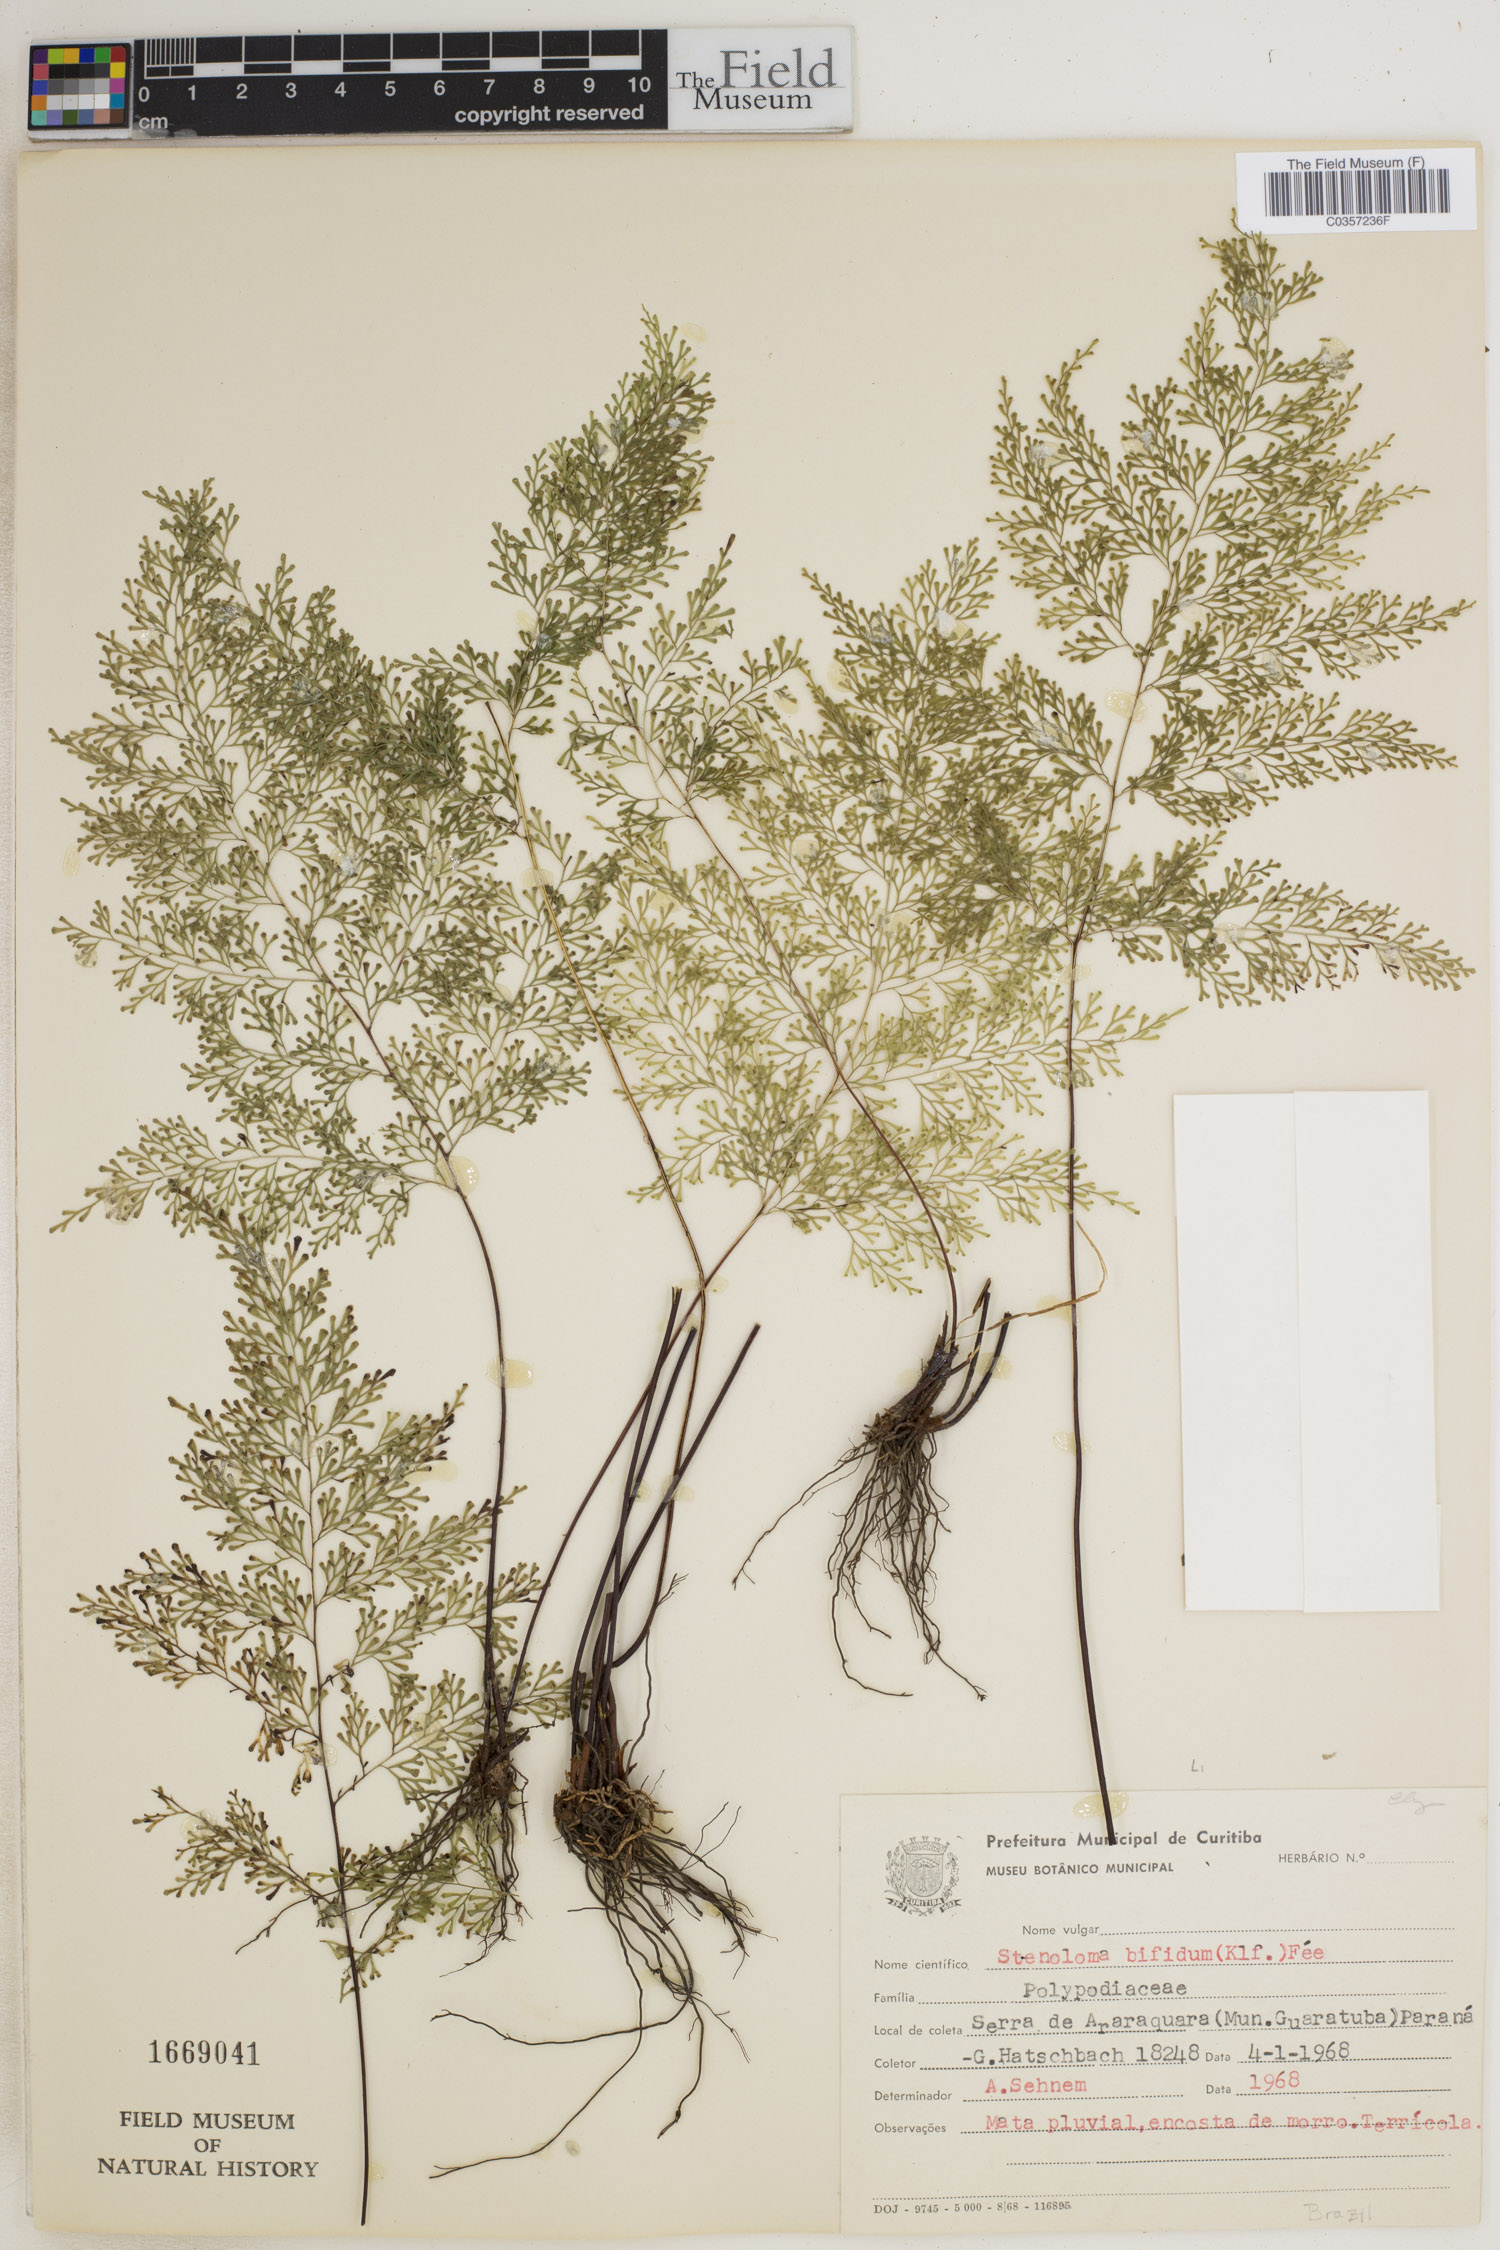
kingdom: Plantae
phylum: Tracheophyta
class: Polypodiopsida
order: Polypodiales
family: Lindsaeaceae
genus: Lindsaea
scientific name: Lindsaea bifida
